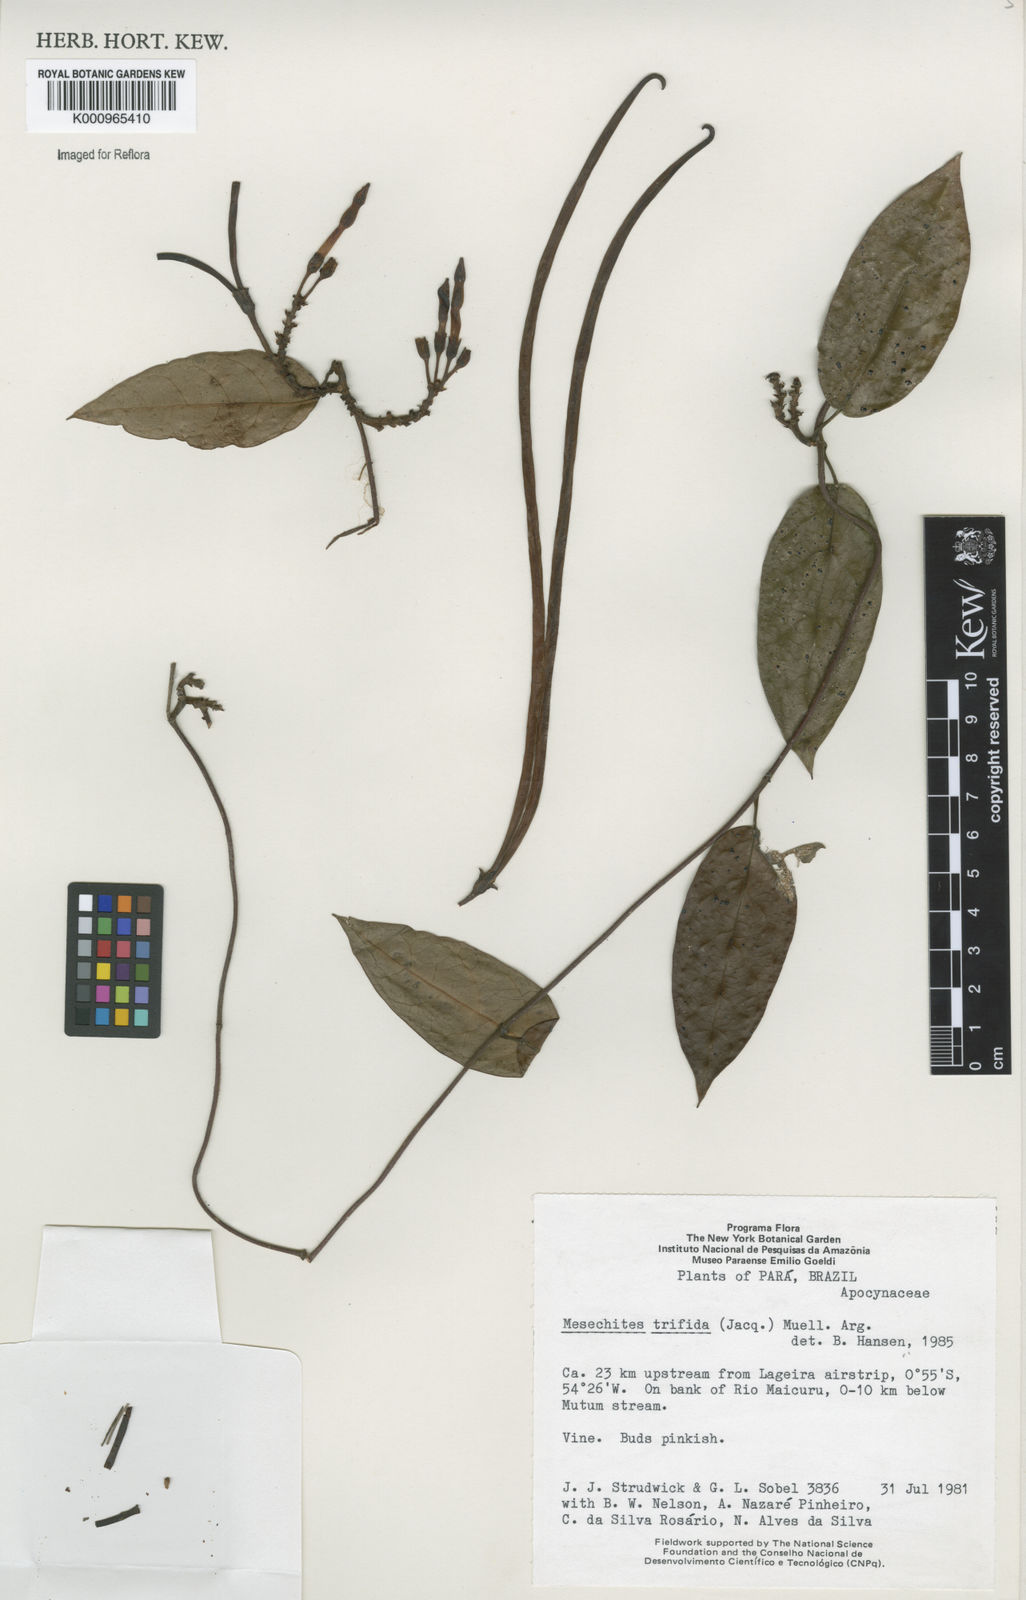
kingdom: Plantae
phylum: Tracheophyta
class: Magnoliopsida
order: Gentianales
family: Apocynaceae
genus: Mesechites
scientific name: Mesechites
